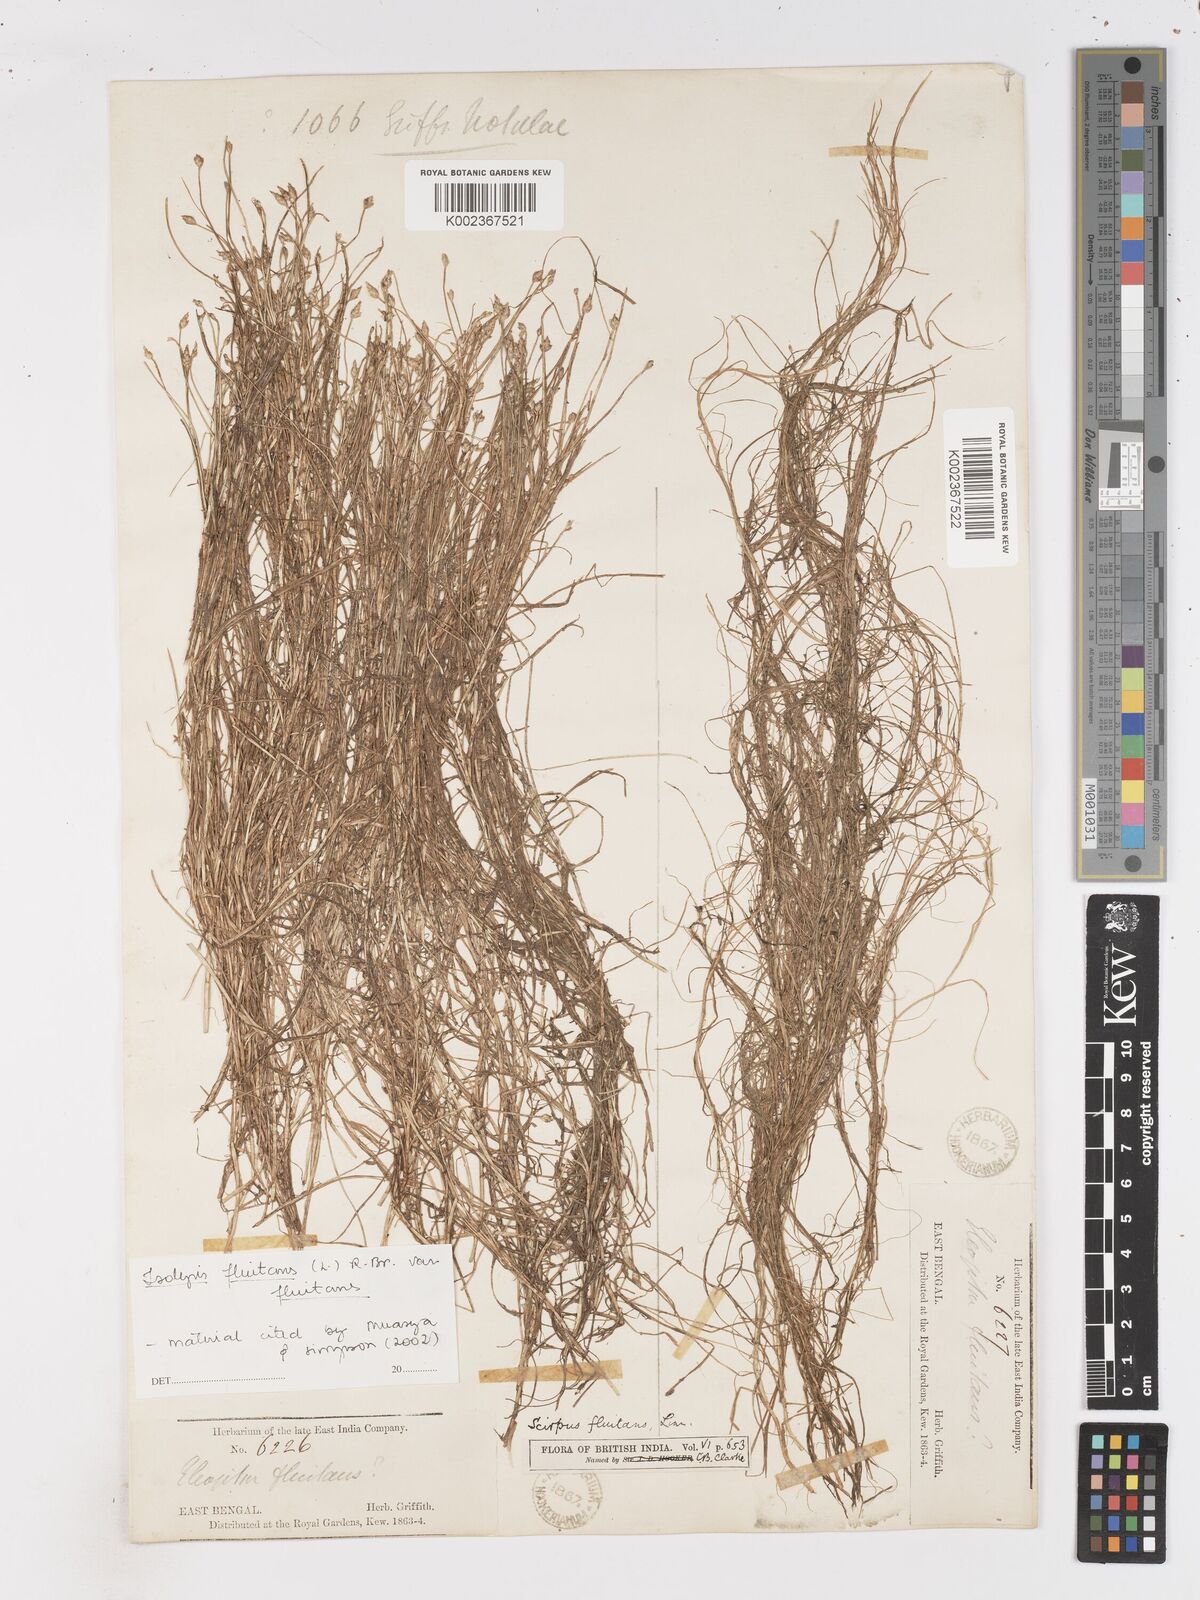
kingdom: Plantae
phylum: Tracheophyta
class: Liliopsida
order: Poales
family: Cyperaceae
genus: Isolepis
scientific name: Isolepis fluitans
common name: Floating club-rush
